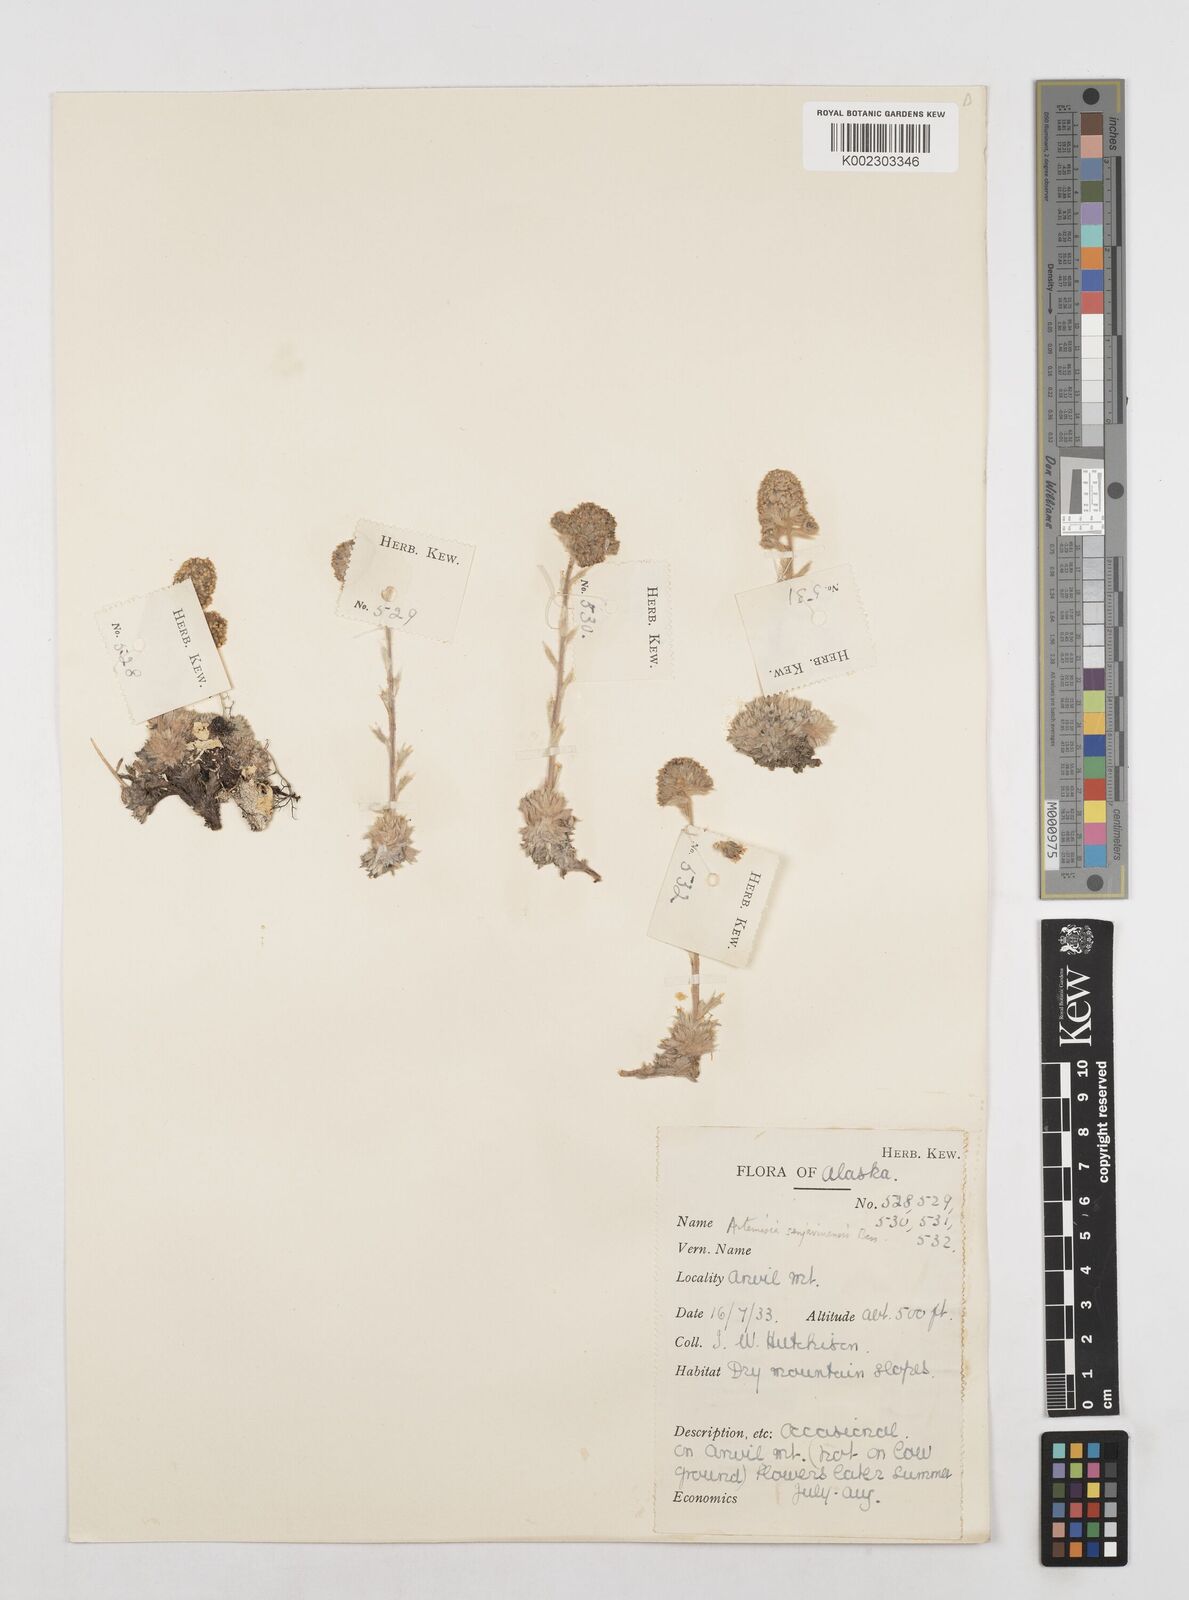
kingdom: Plantae
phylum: Tracheophyta
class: Magnoliopsida
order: Asterales
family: Asteraceae
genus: Artemisia
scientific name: Artemisia senjavinensis
